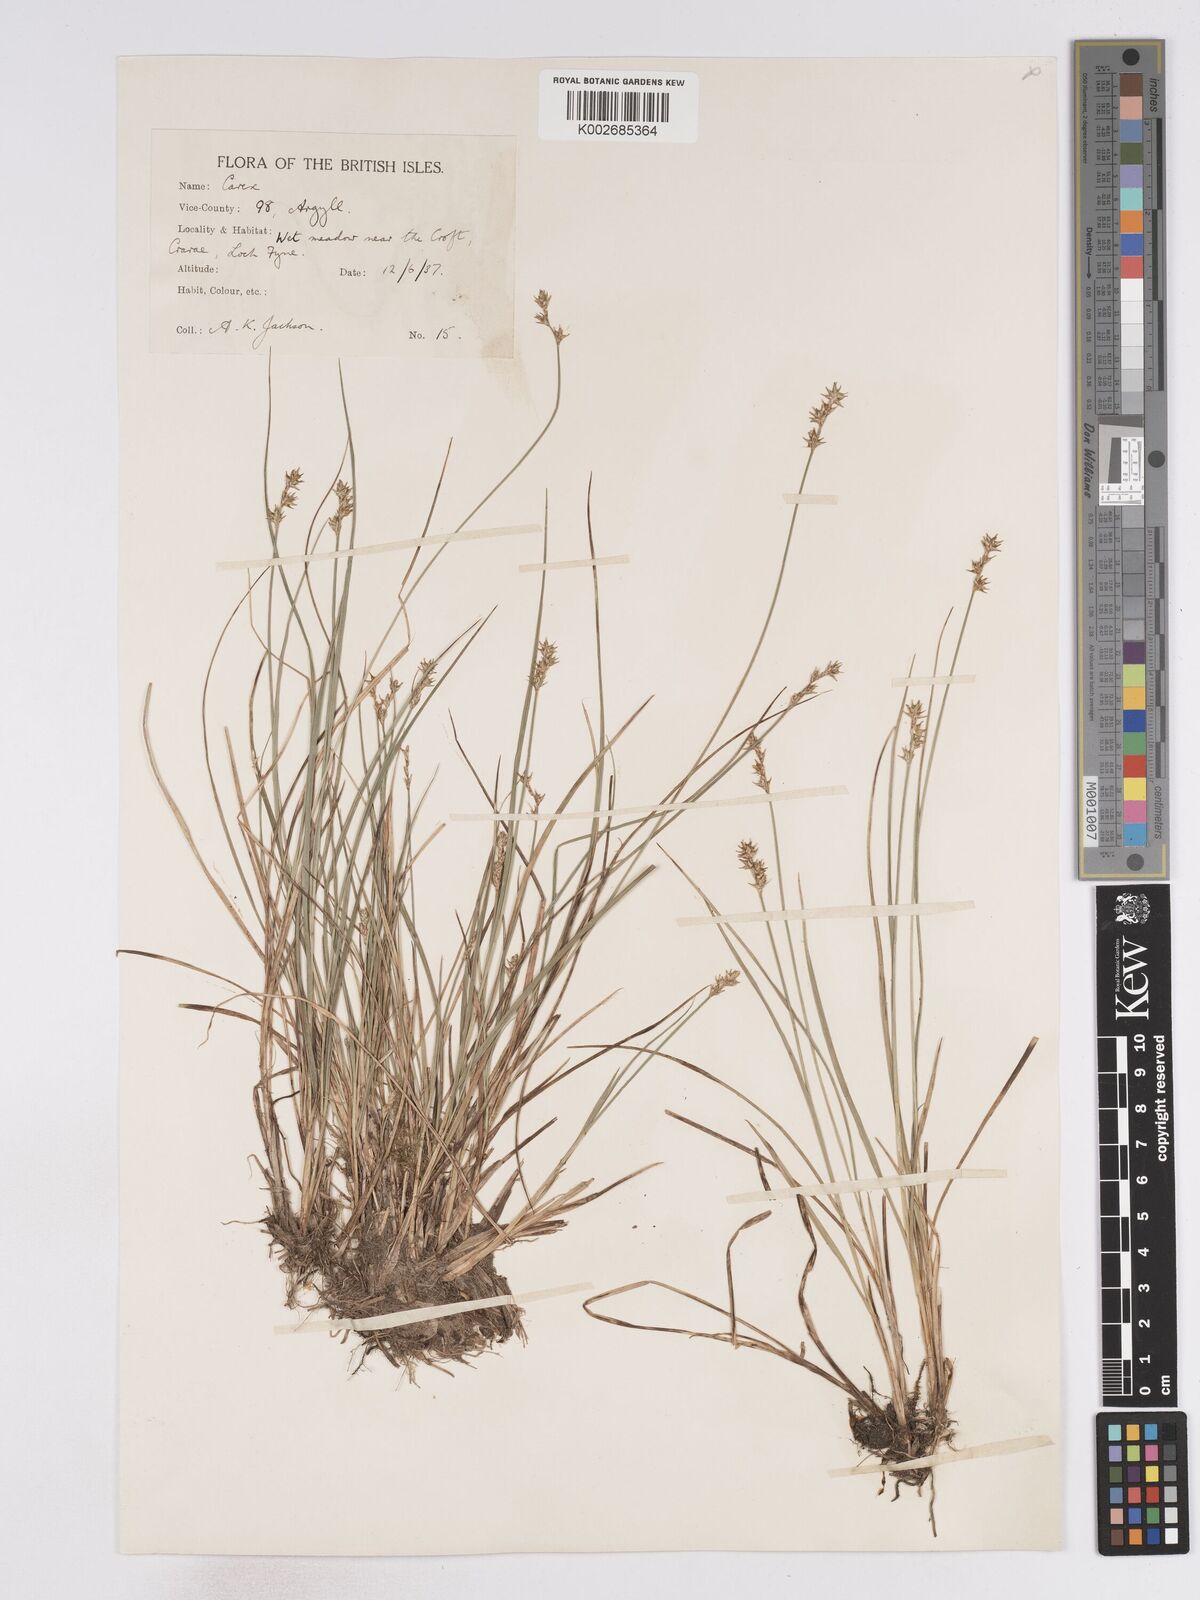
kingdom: Plantae
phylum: Tracheophyta
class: Liliopsida
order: Poales
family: Cyperaceae
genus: Carex
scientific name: Carex echinata
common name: Star sedge
